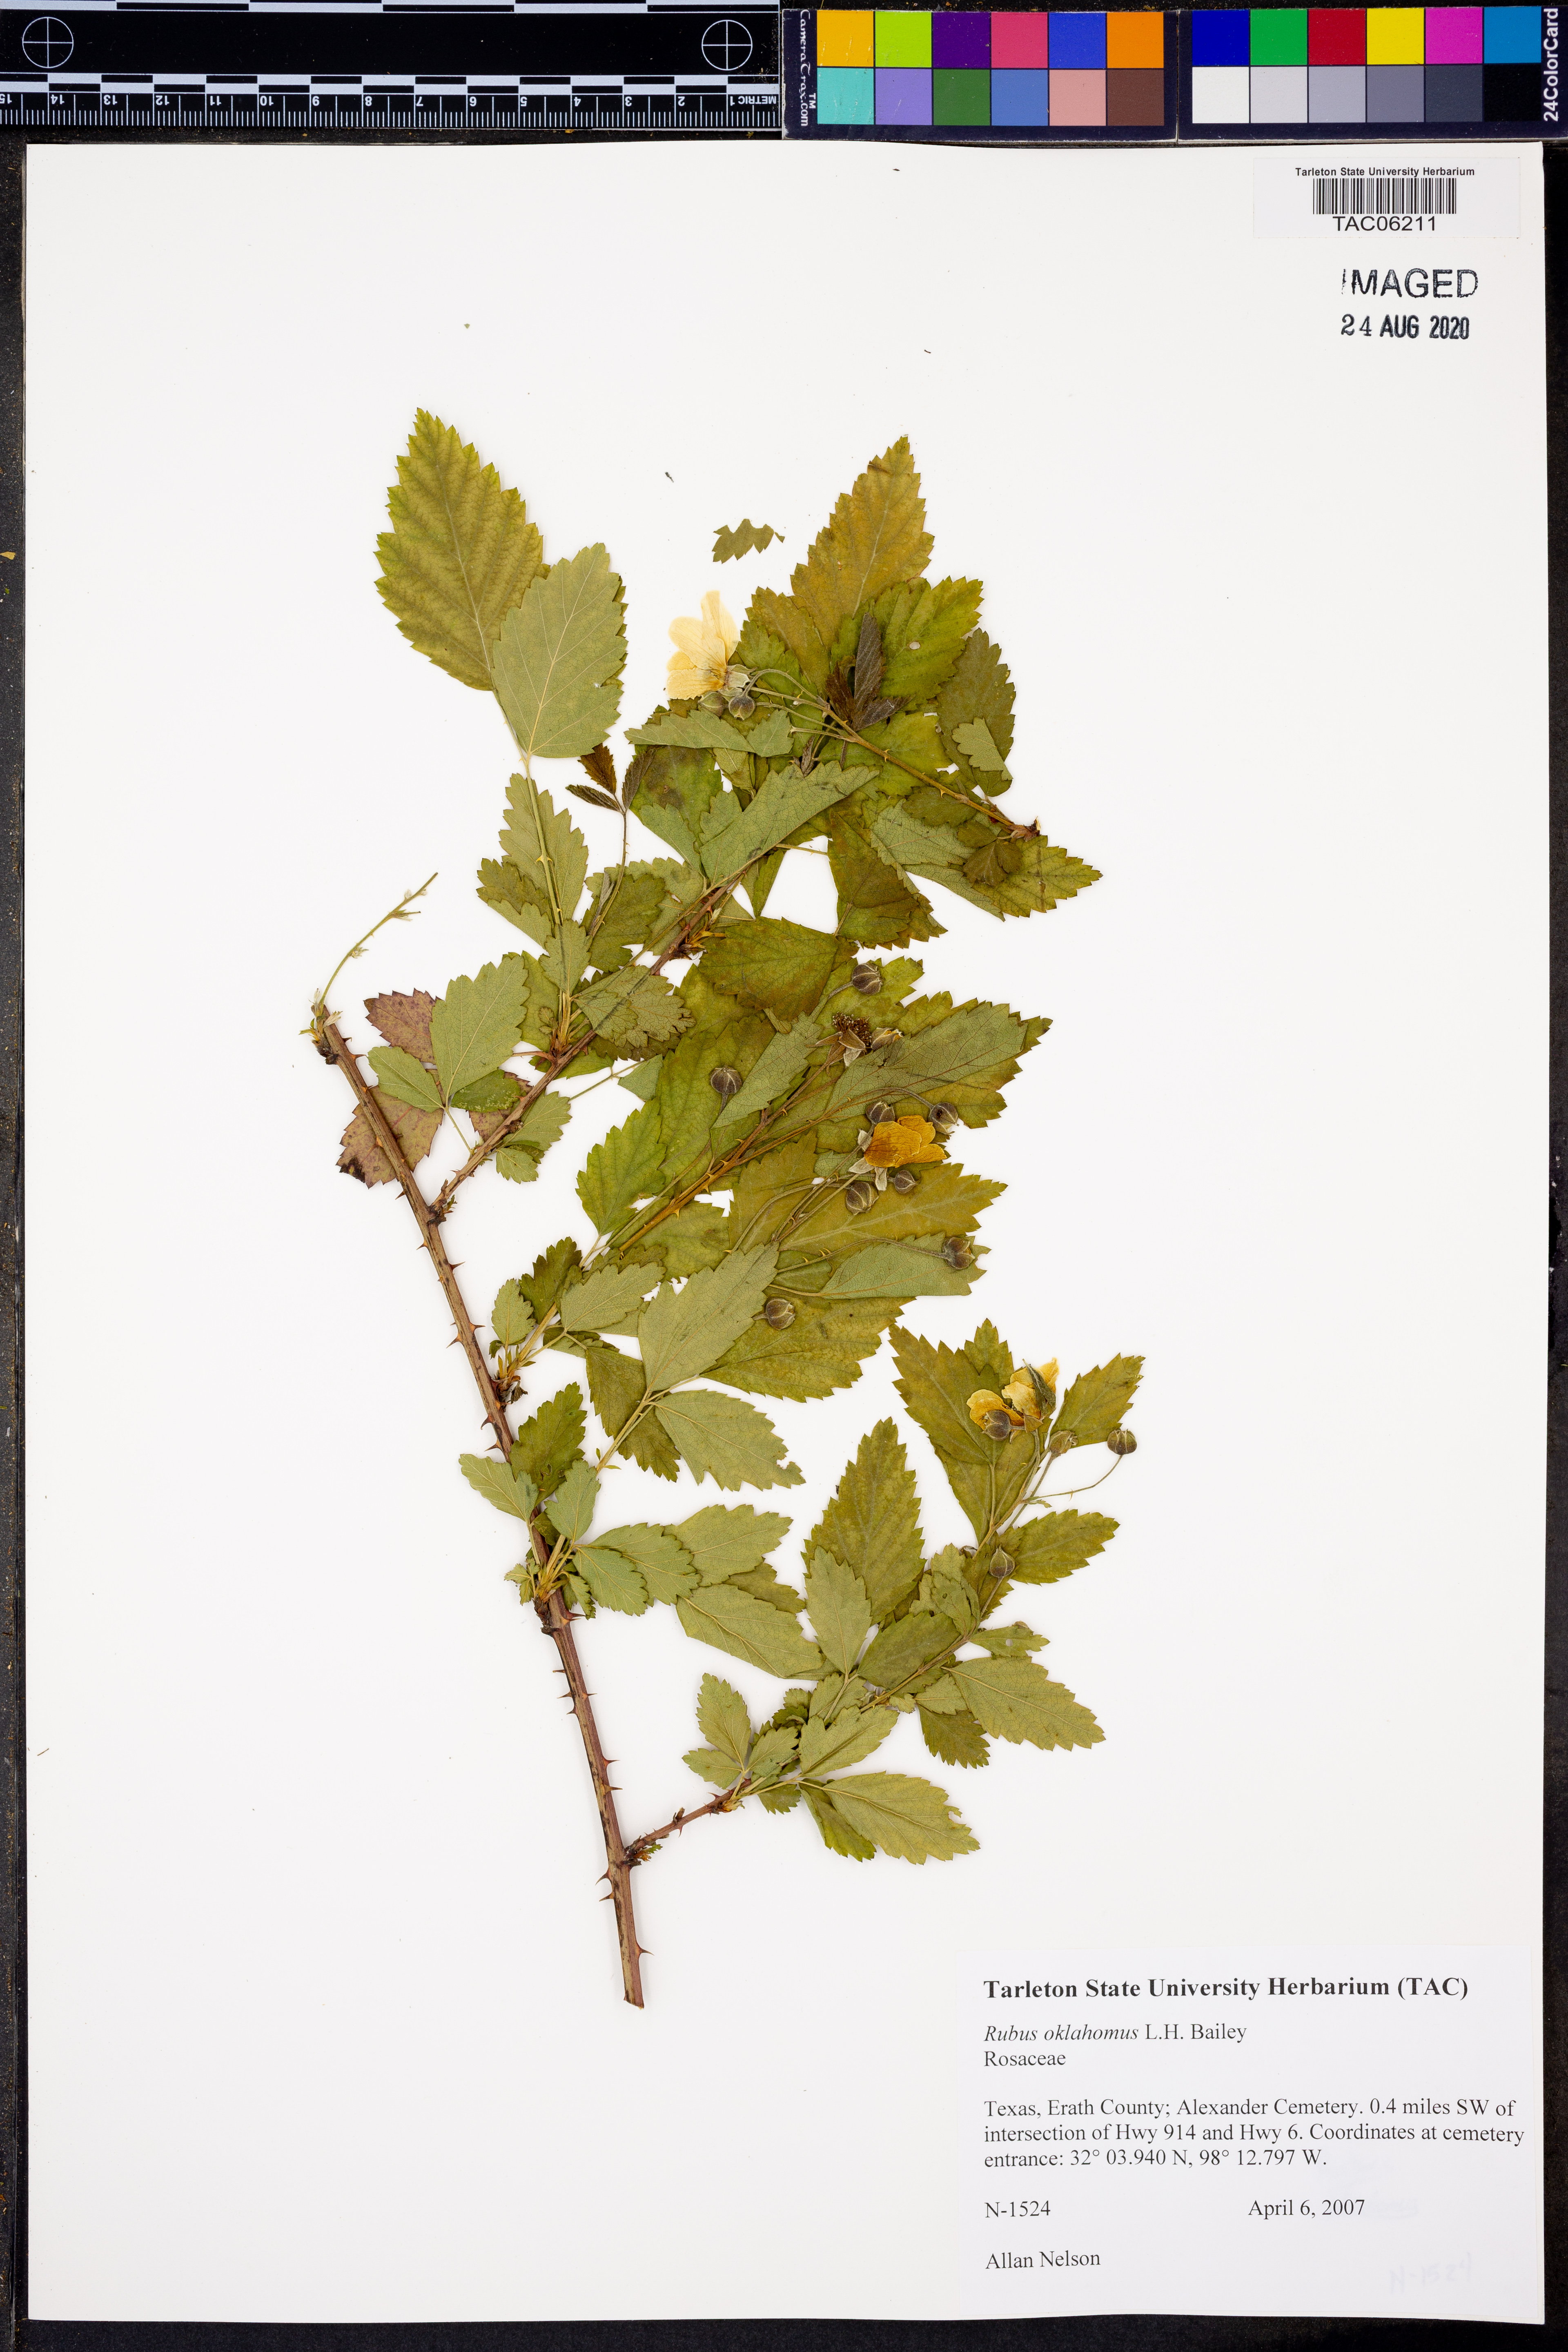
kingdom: Plantae
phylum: Tracheophyta
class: Magnoliopsida
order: Rosales
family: Rosaceae
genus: Rubus
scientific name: Rubus oklahomus
